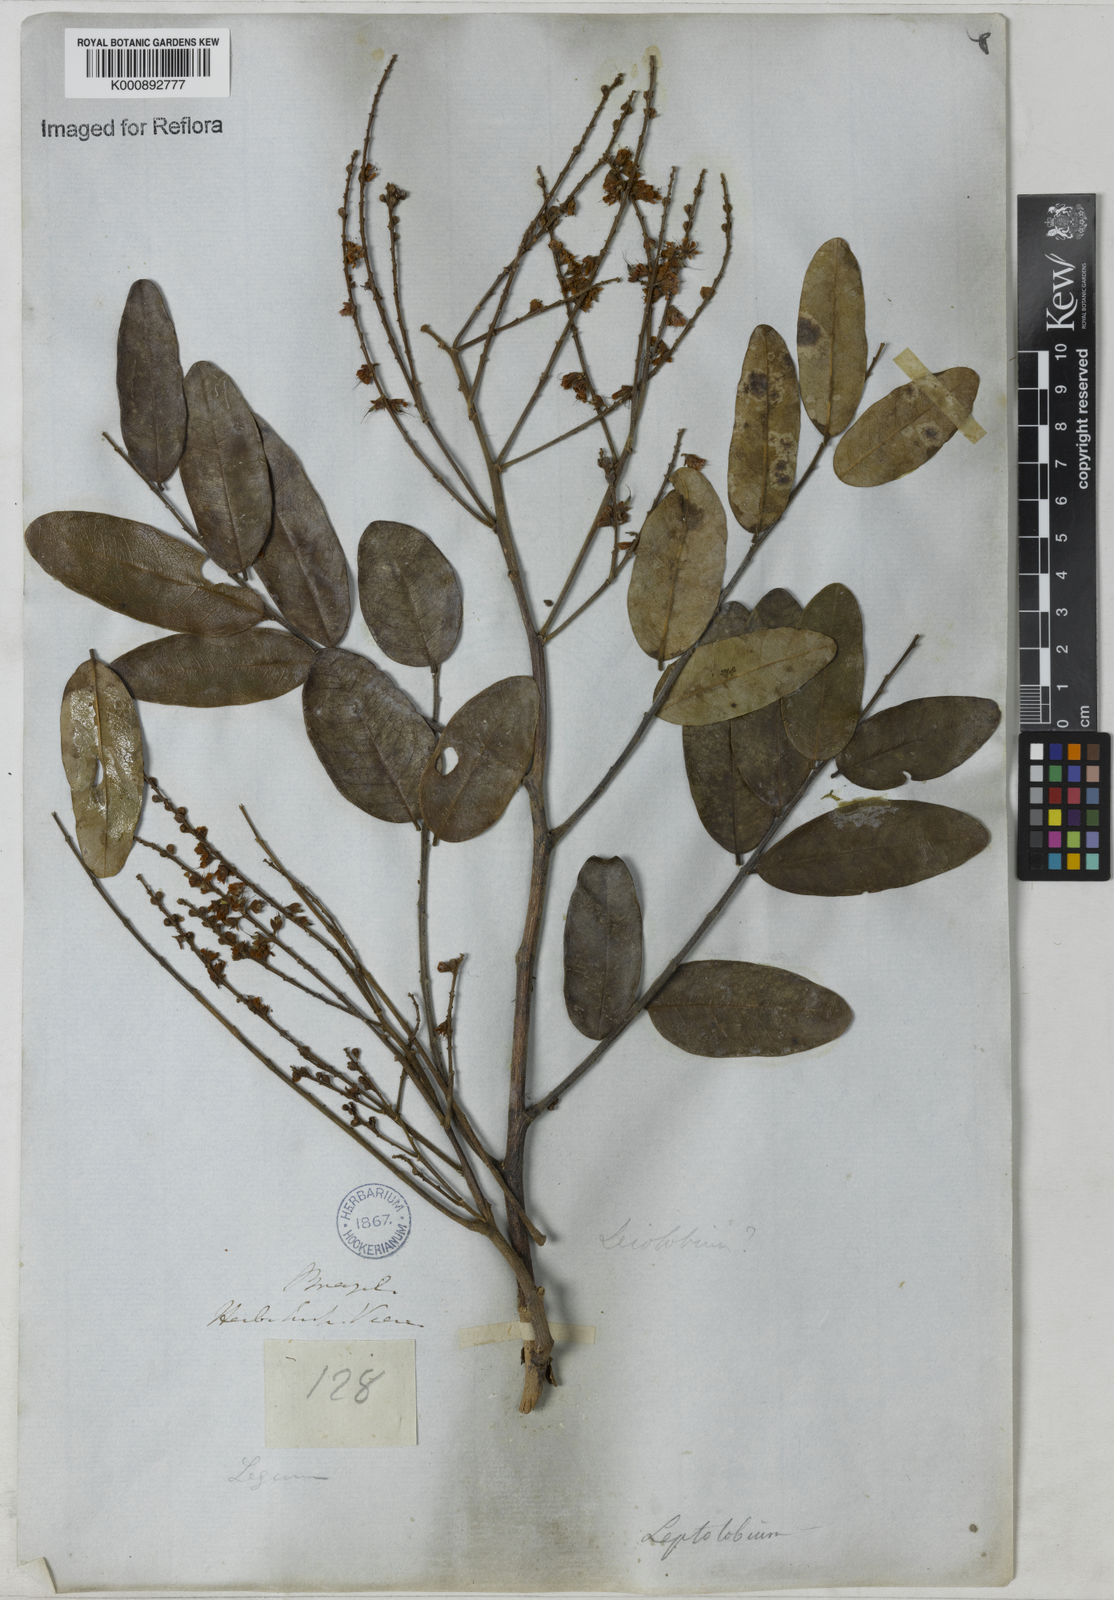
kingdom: Plantae
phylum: Tracheophyta
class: Magnoliopsida
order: Fabales
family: Fabaceae
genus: Leptolobium
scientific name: Leptolobium
